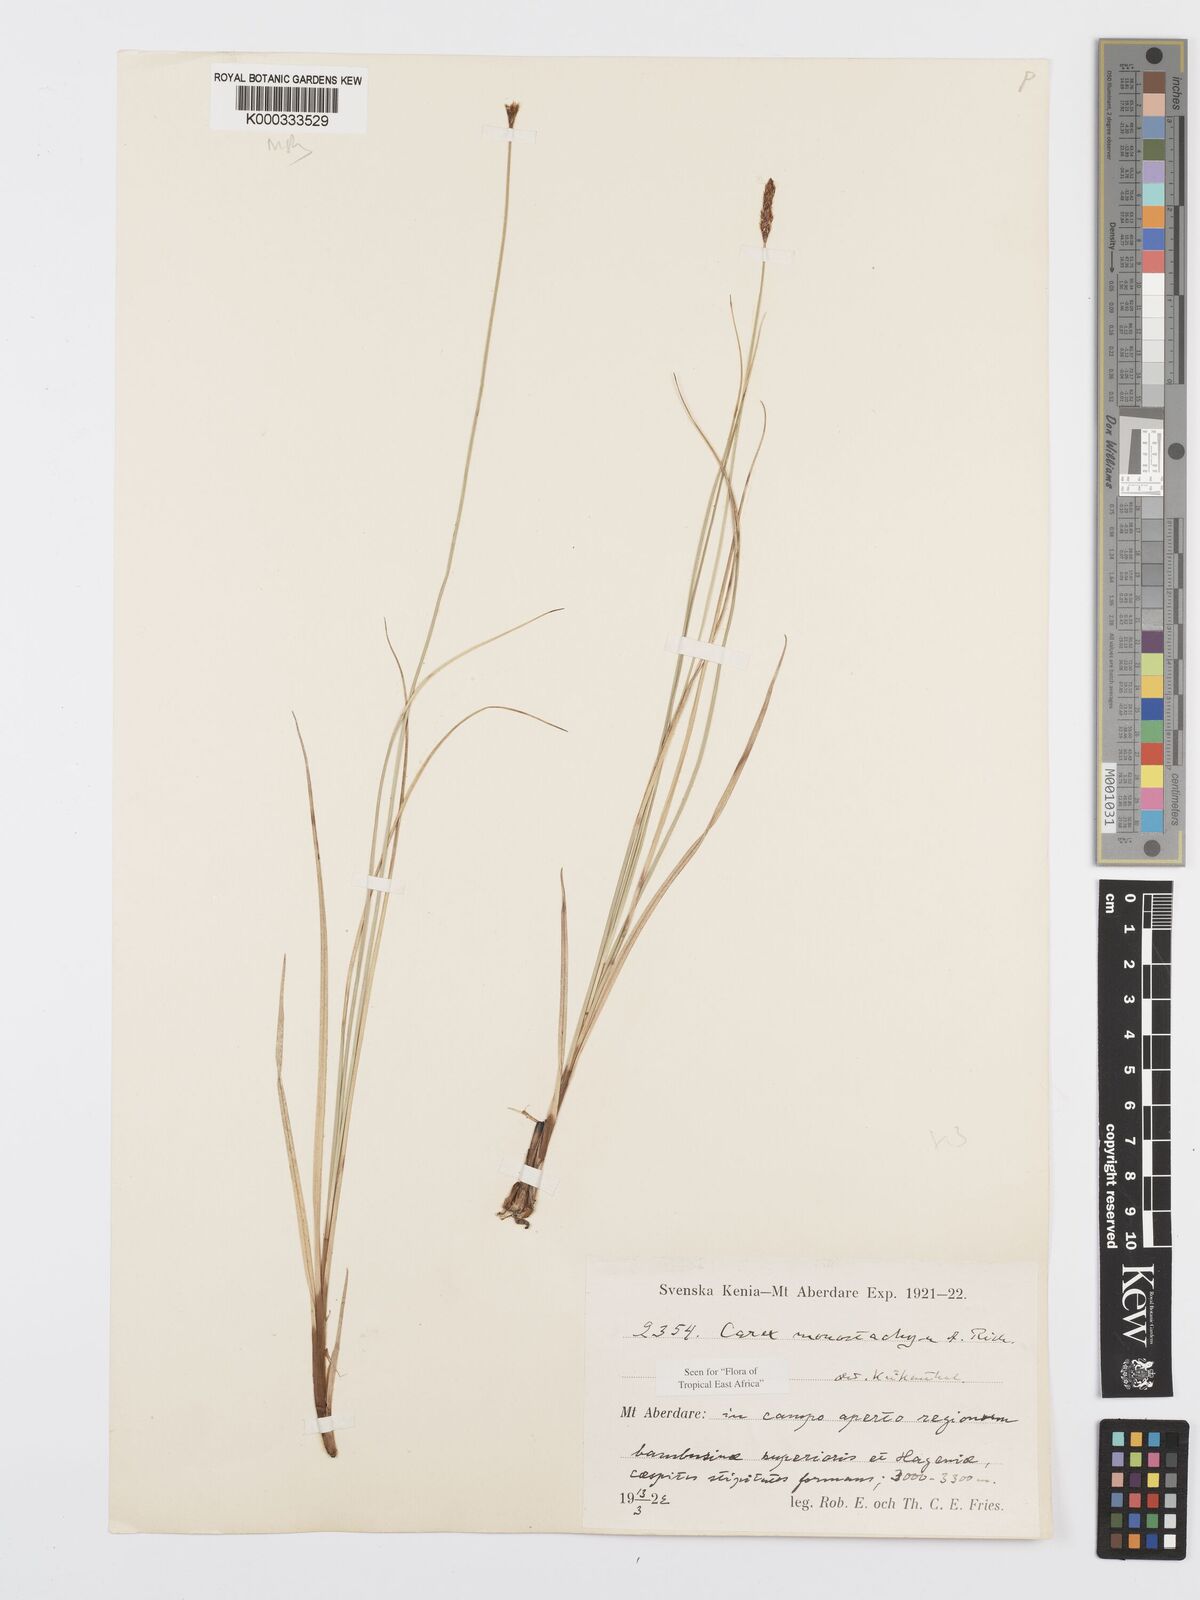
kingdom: Plantae
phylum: Tracheophyta
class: Liliopsida
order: Poales
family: Cyperaceae
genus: Carex
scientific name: Carex monostachya
